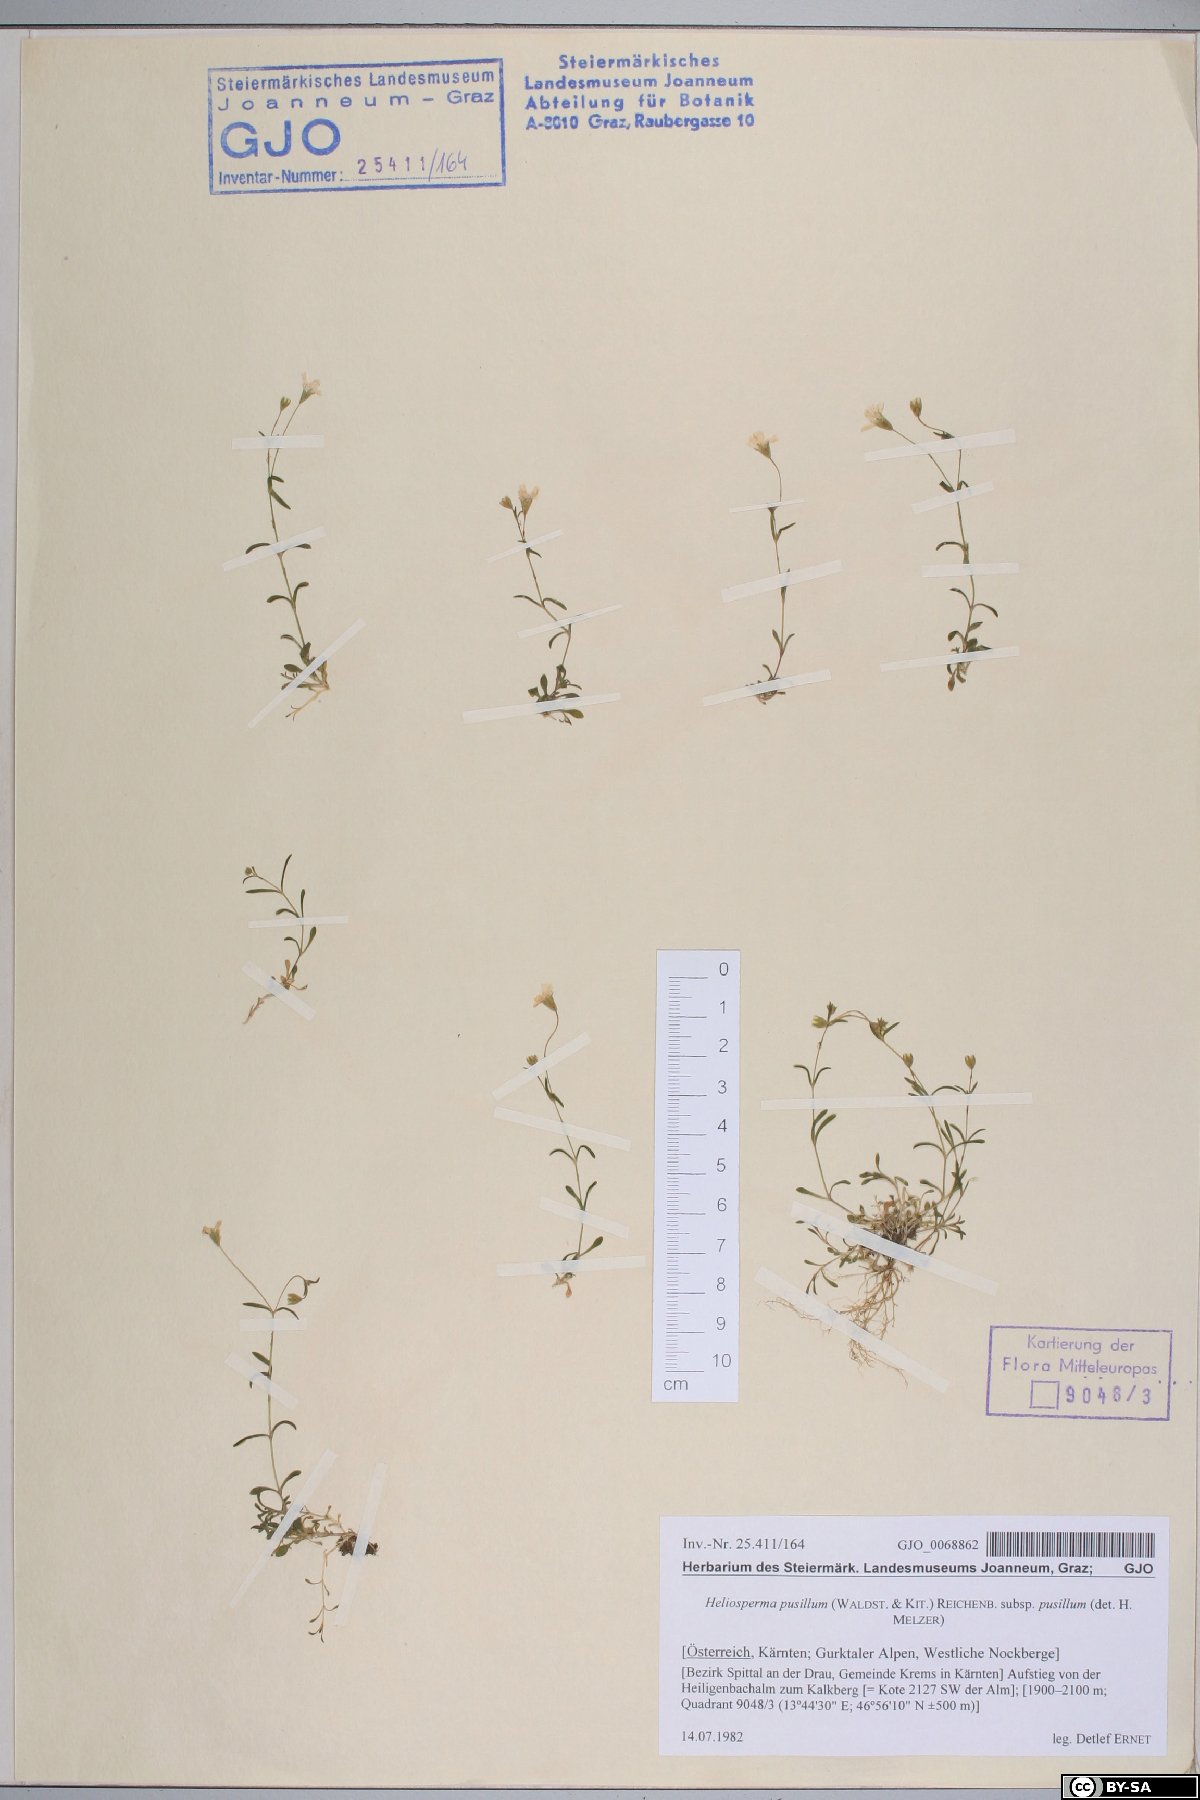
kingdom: Plantae
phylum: Tracheophyta
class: Magnoliopsida
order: Caryophyllales
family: Caryophyllaceae
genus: Heliosperma
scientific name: Heliosperma pusillum
